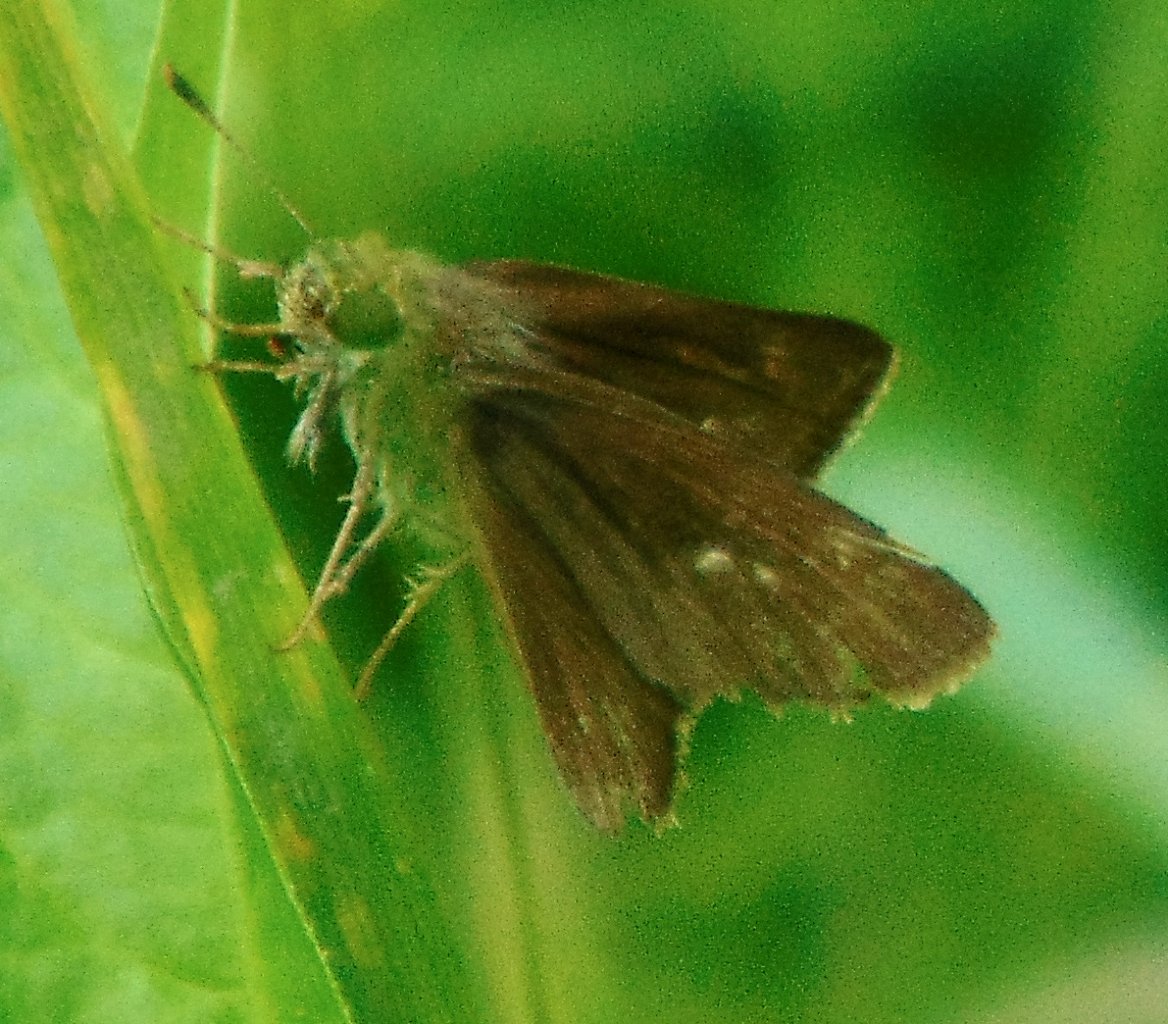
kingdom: Animalia
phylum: Arthropoda
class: Insecta
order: Lepidoptera
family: Hesperiidae
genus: Euphyes
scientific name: Euphyes vestris
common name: Dun Skipper
